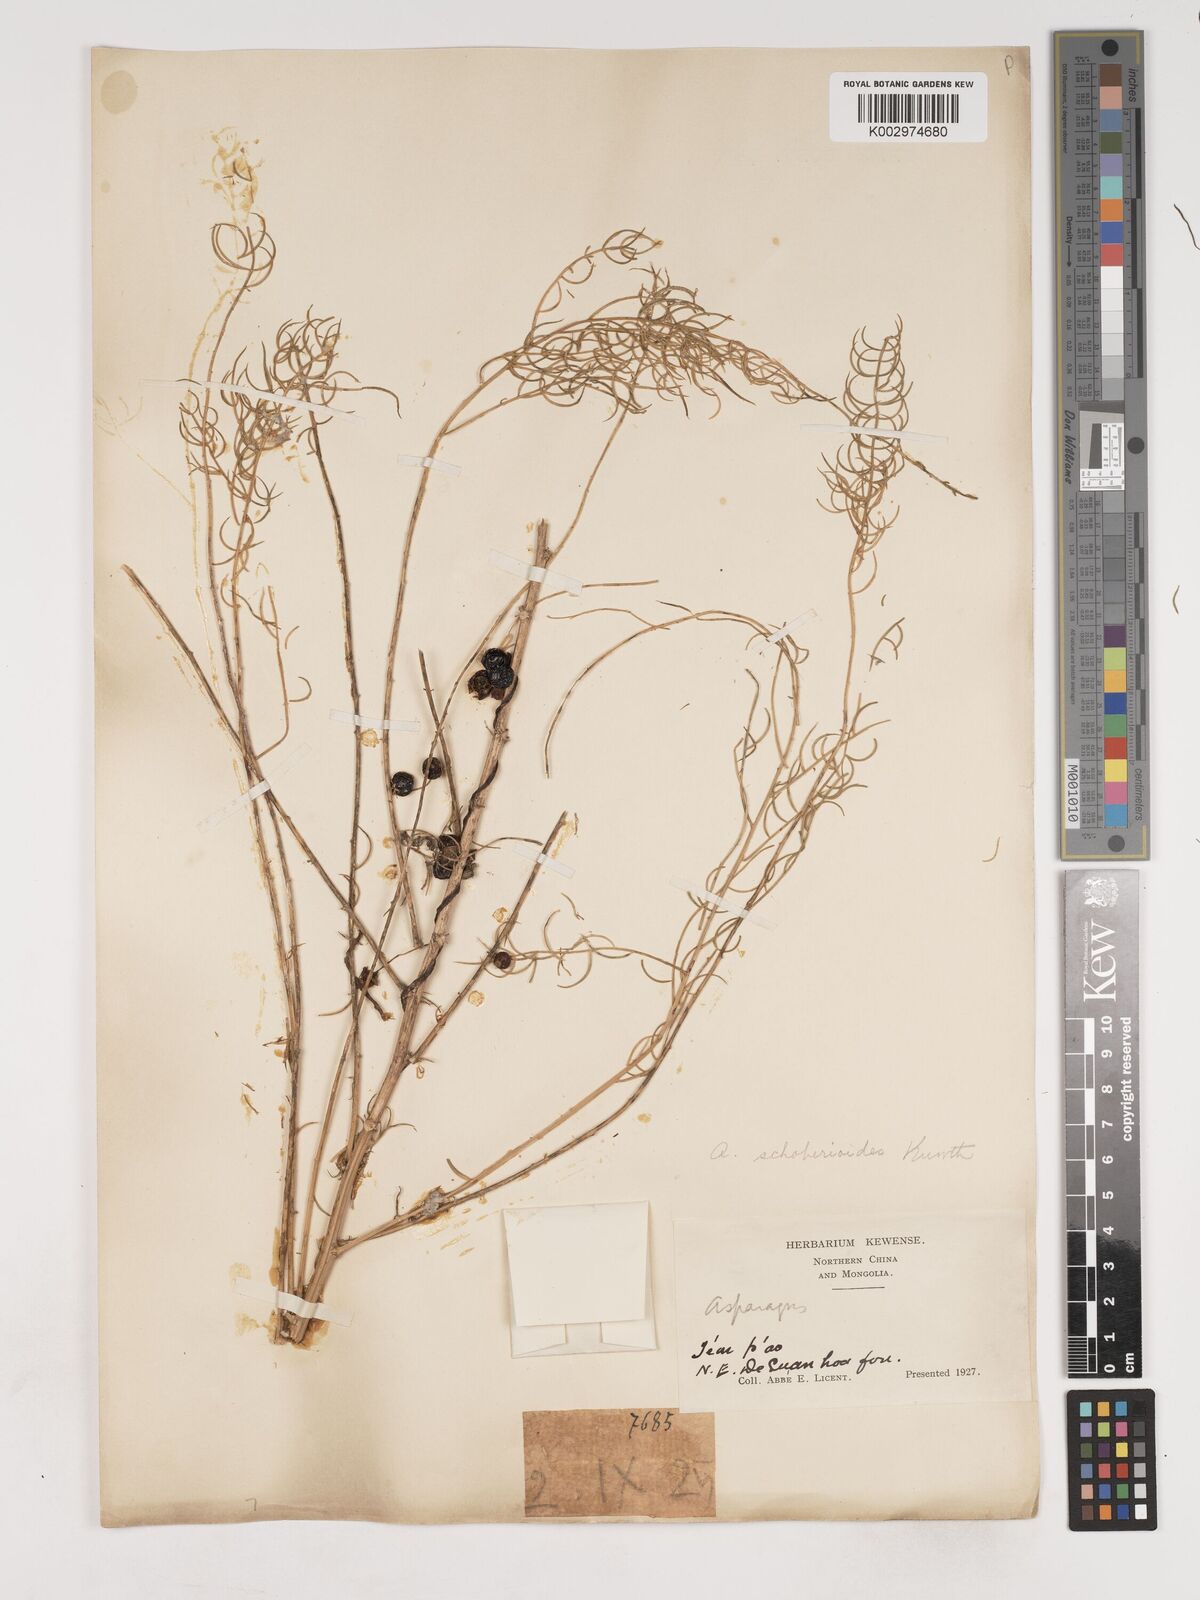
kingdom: Plantae
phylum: Tracheophyta
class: Liliopsida
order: Asparagales
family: Asparagaceae
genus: Asparagus
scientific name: Asparagus schoberioides
